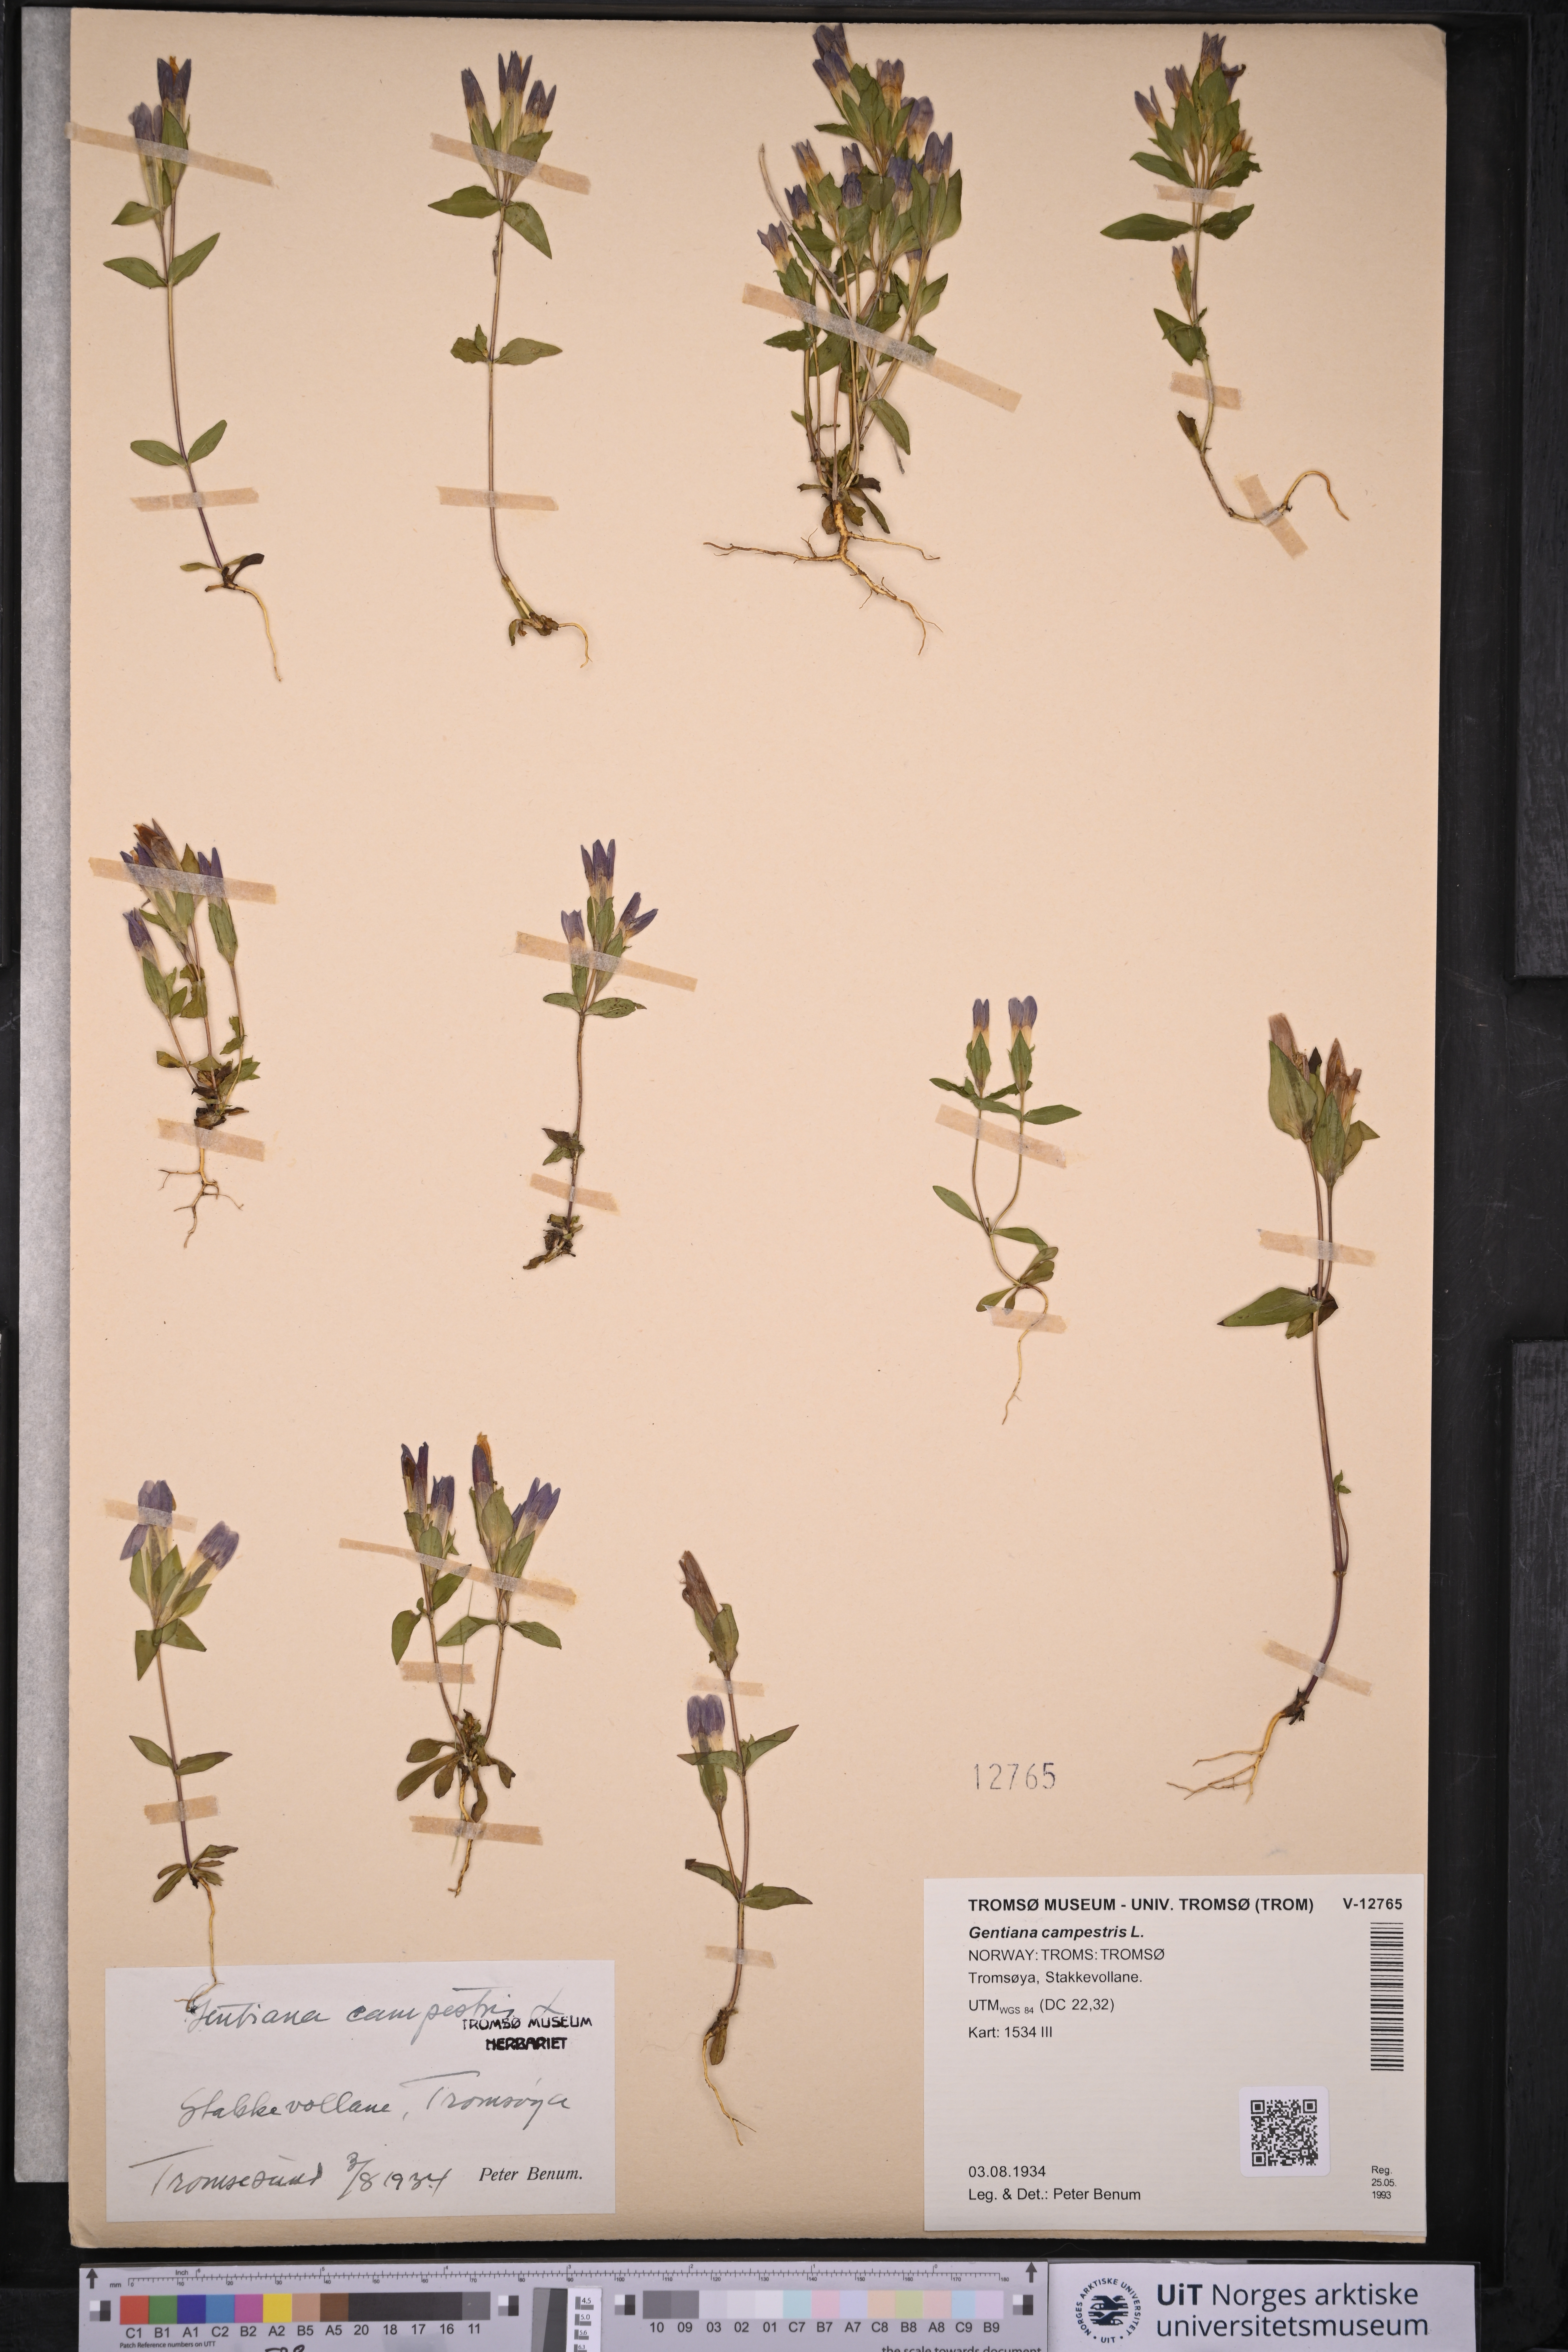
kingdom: Plantae
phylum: Tracheophyta
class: Magnoliopsida
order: Gentianales
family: Gentianaceae
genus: Gentianella
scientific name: Gentianella campestris
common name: Field gentian
